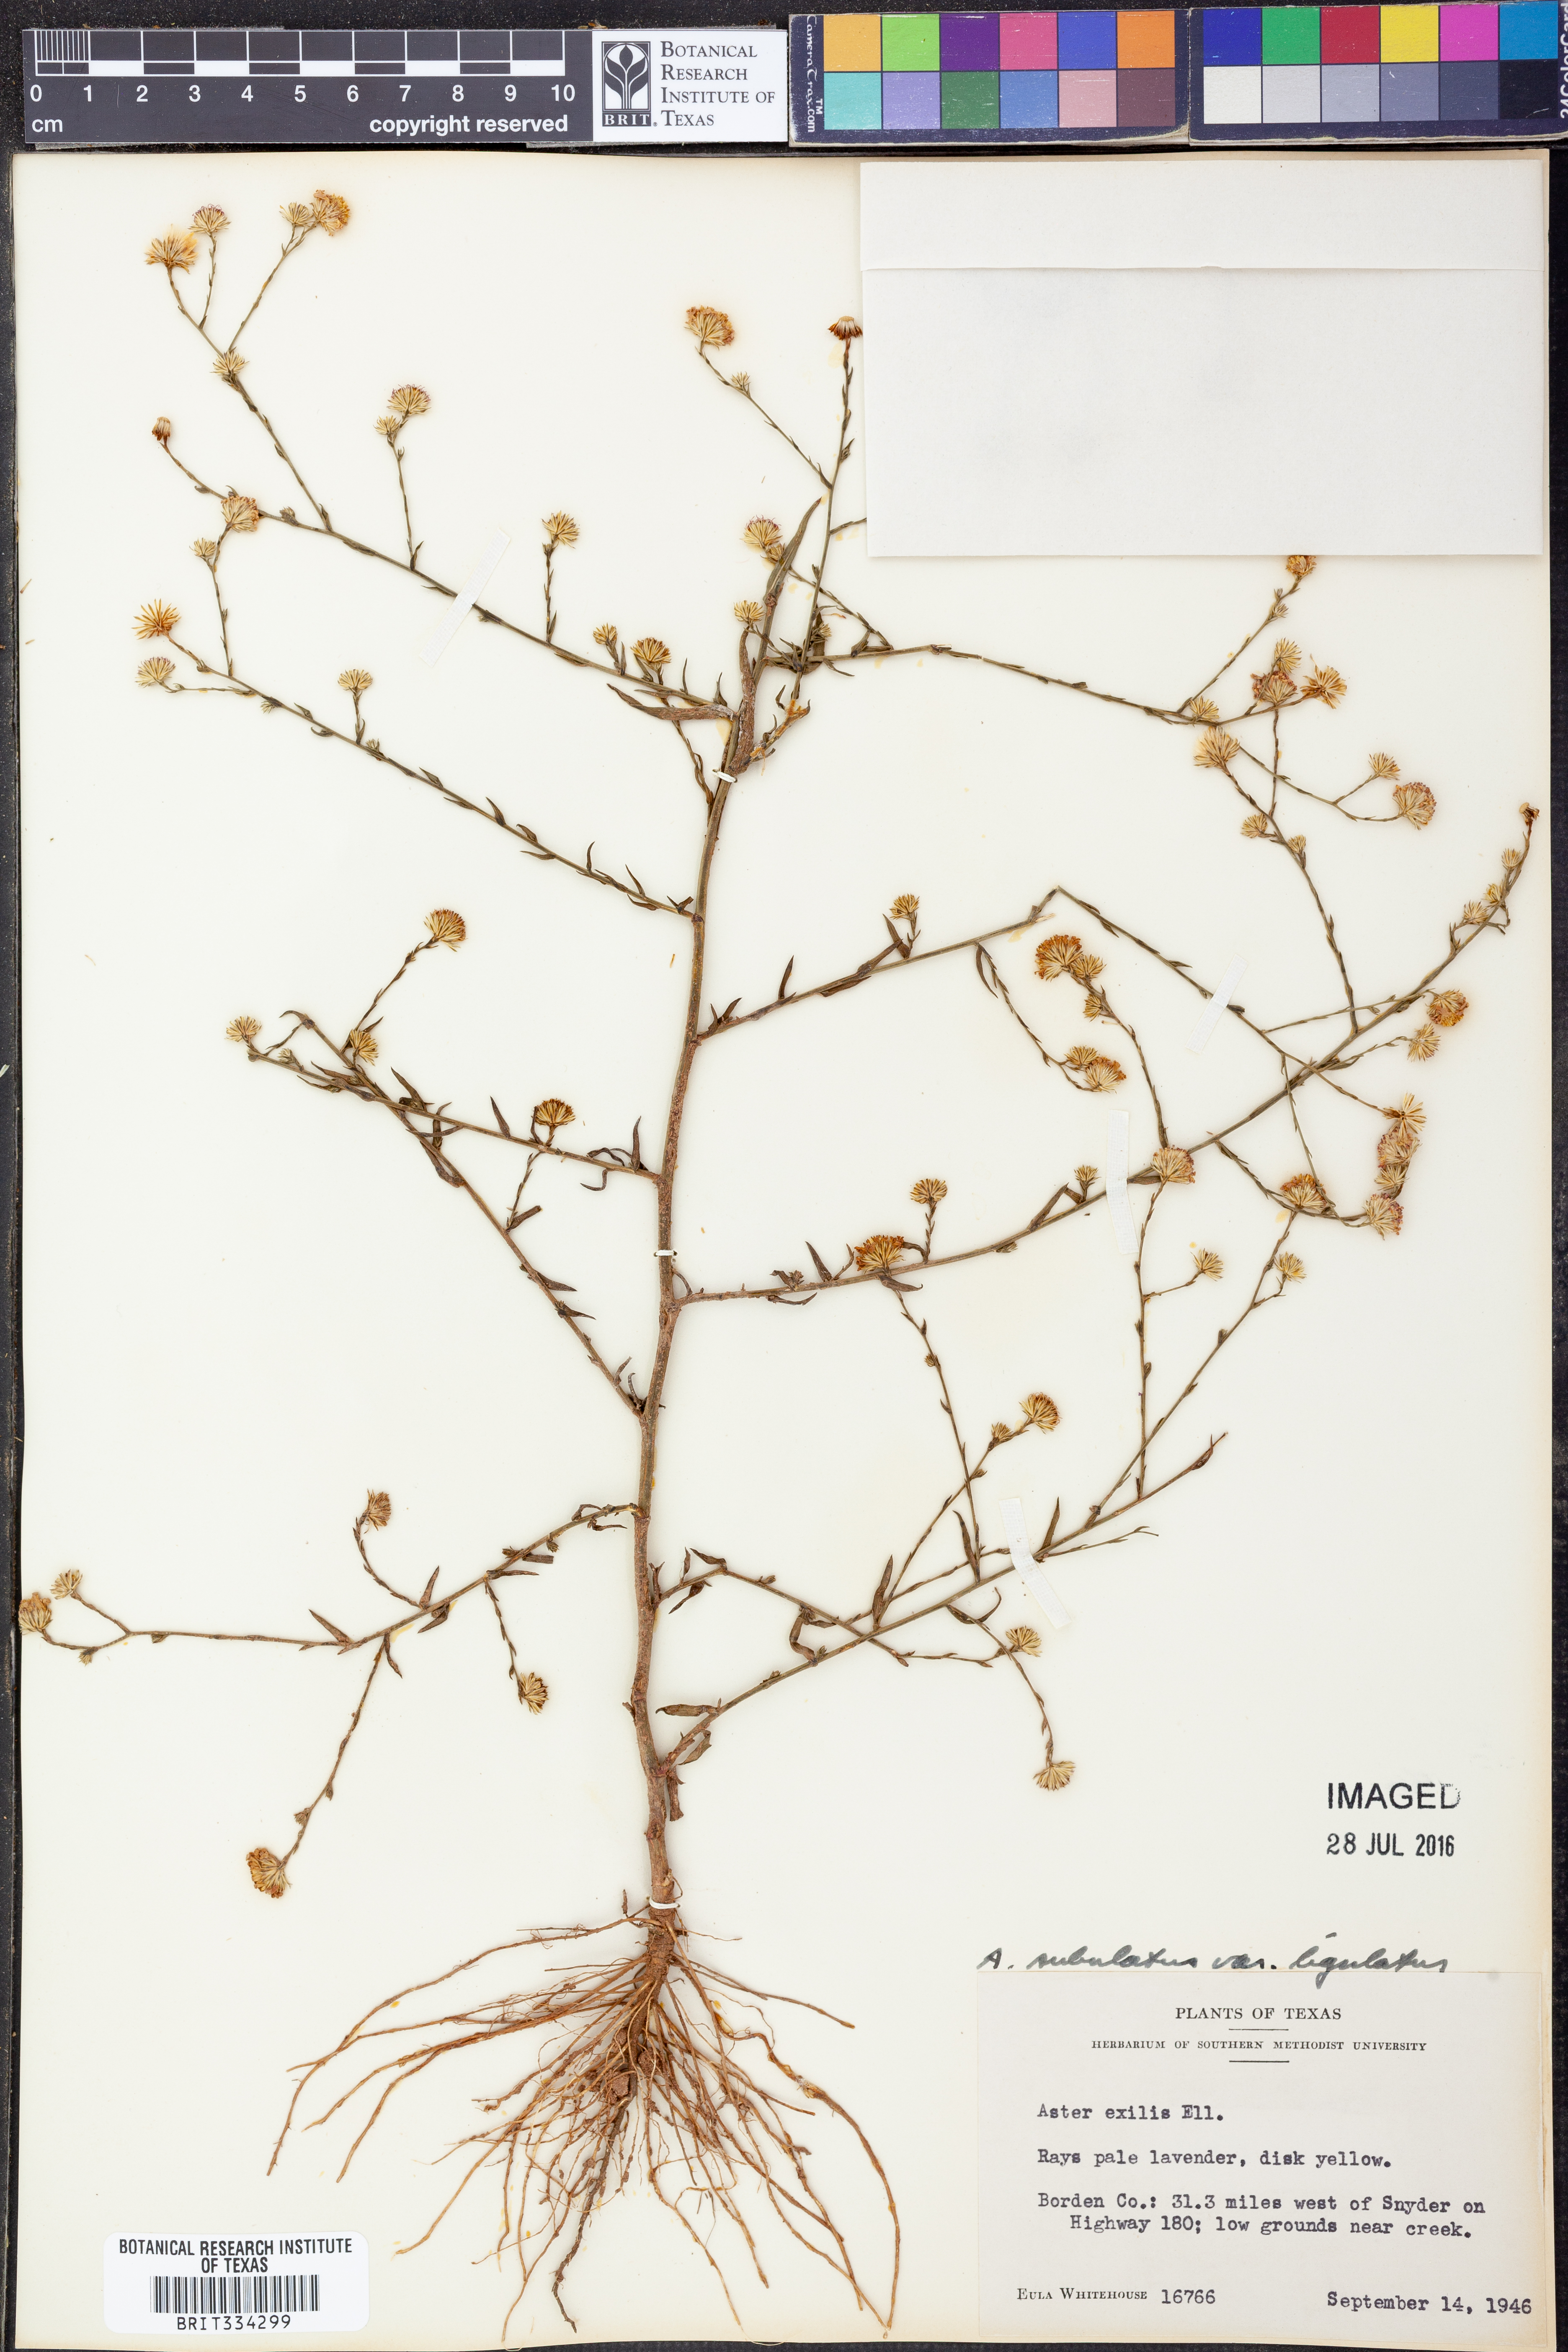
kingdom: Plantae
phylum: Tracheophyta
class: Magnoliopsida
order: Asterales
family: Asteraceae
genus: Symphyotrichum
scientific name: Symphyotrichum divaricatum
